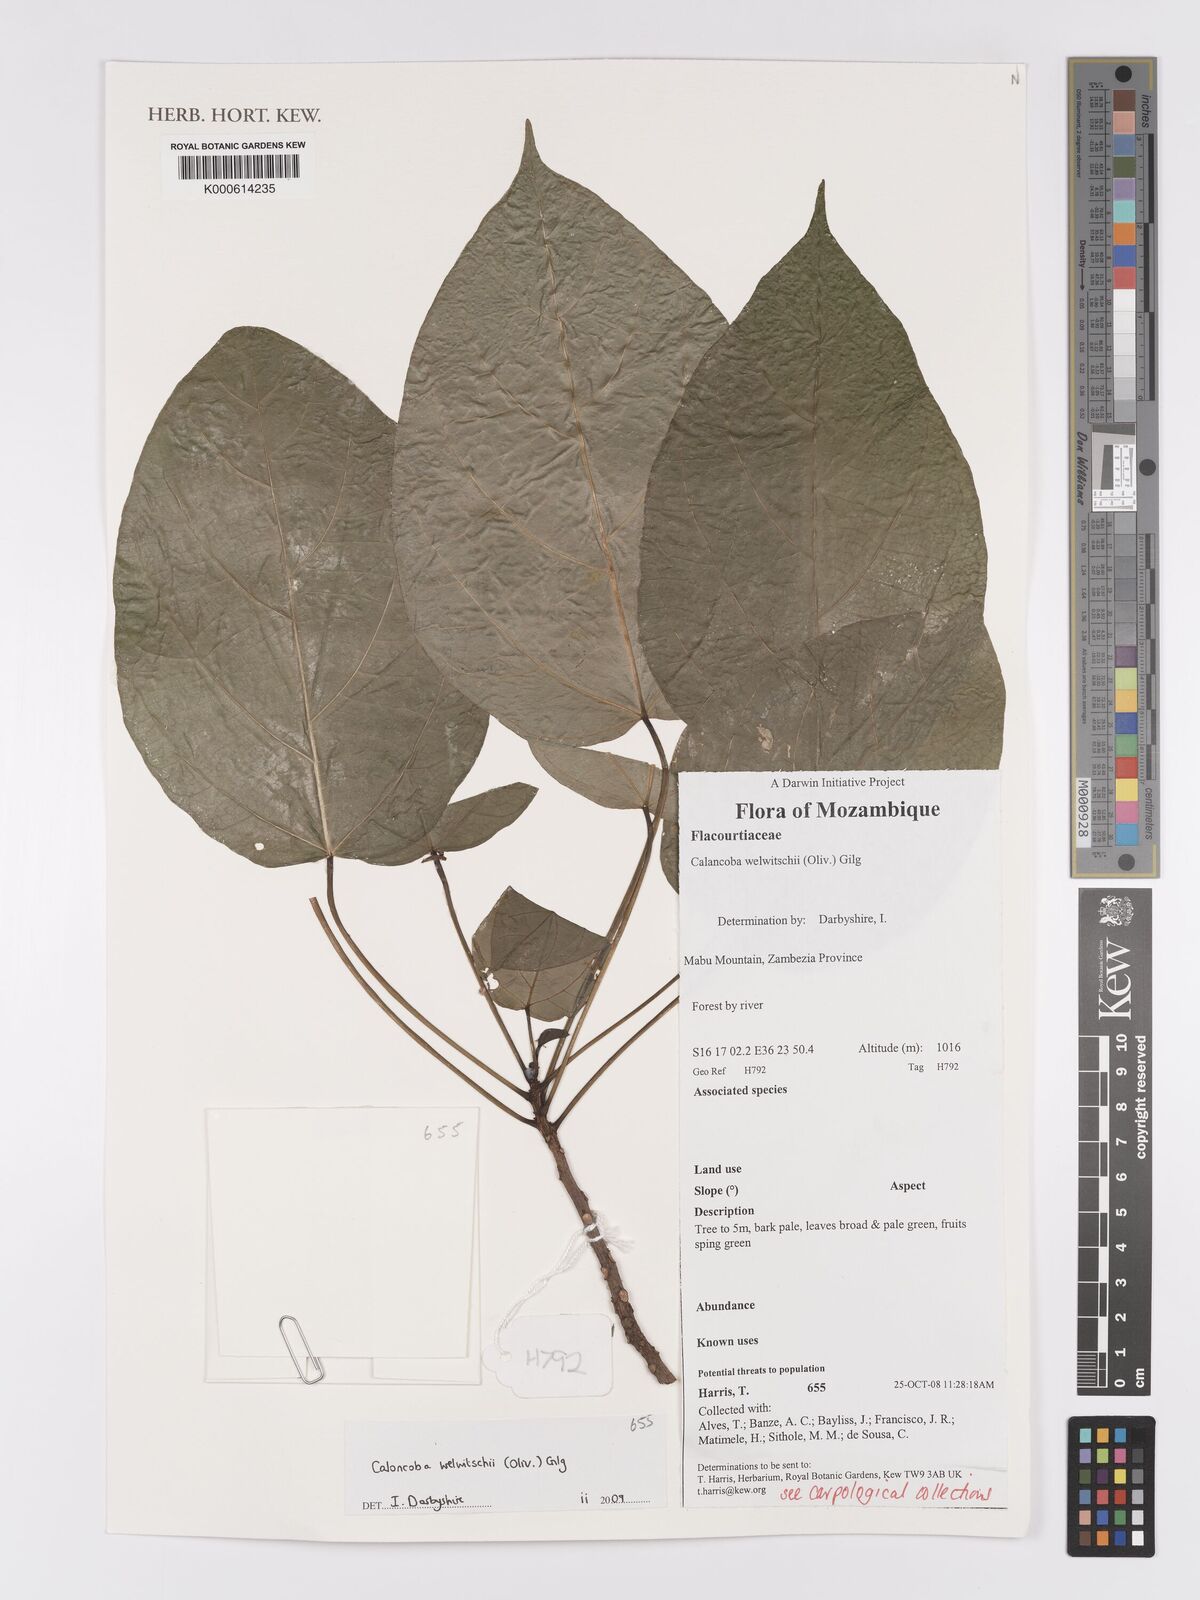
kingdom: Plantae
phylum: Tracheophyta
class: Magnoliopsida
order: Malpighiales
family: Achariaceae
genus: Caloncoba
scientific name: Caloncoba welwitschii
